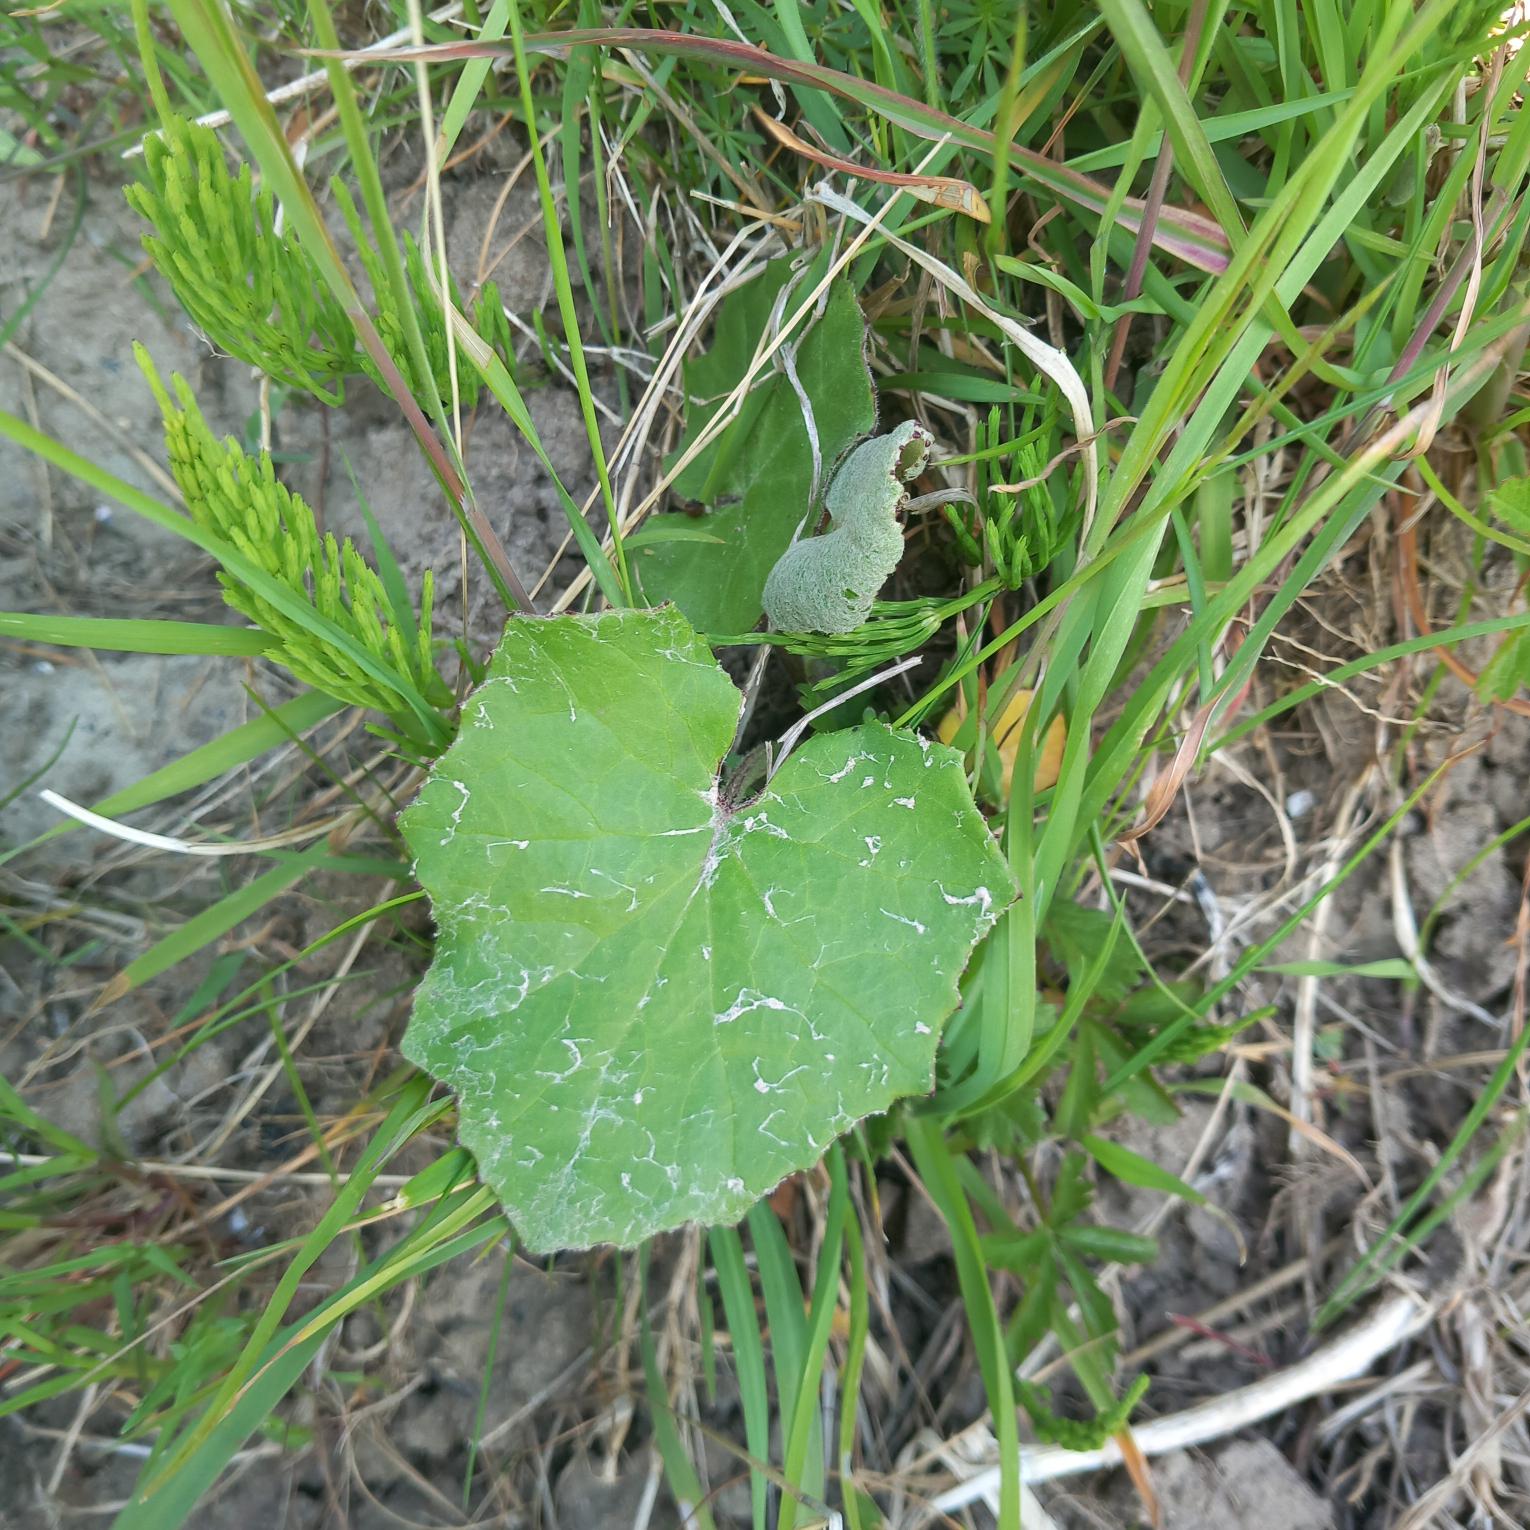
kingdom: Plantae
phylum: Tracheophyta
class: Magnoliopsida
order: Asterales
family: Asteraceae
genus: Tussilago
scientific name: Tussilago farfara
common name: Følfod
